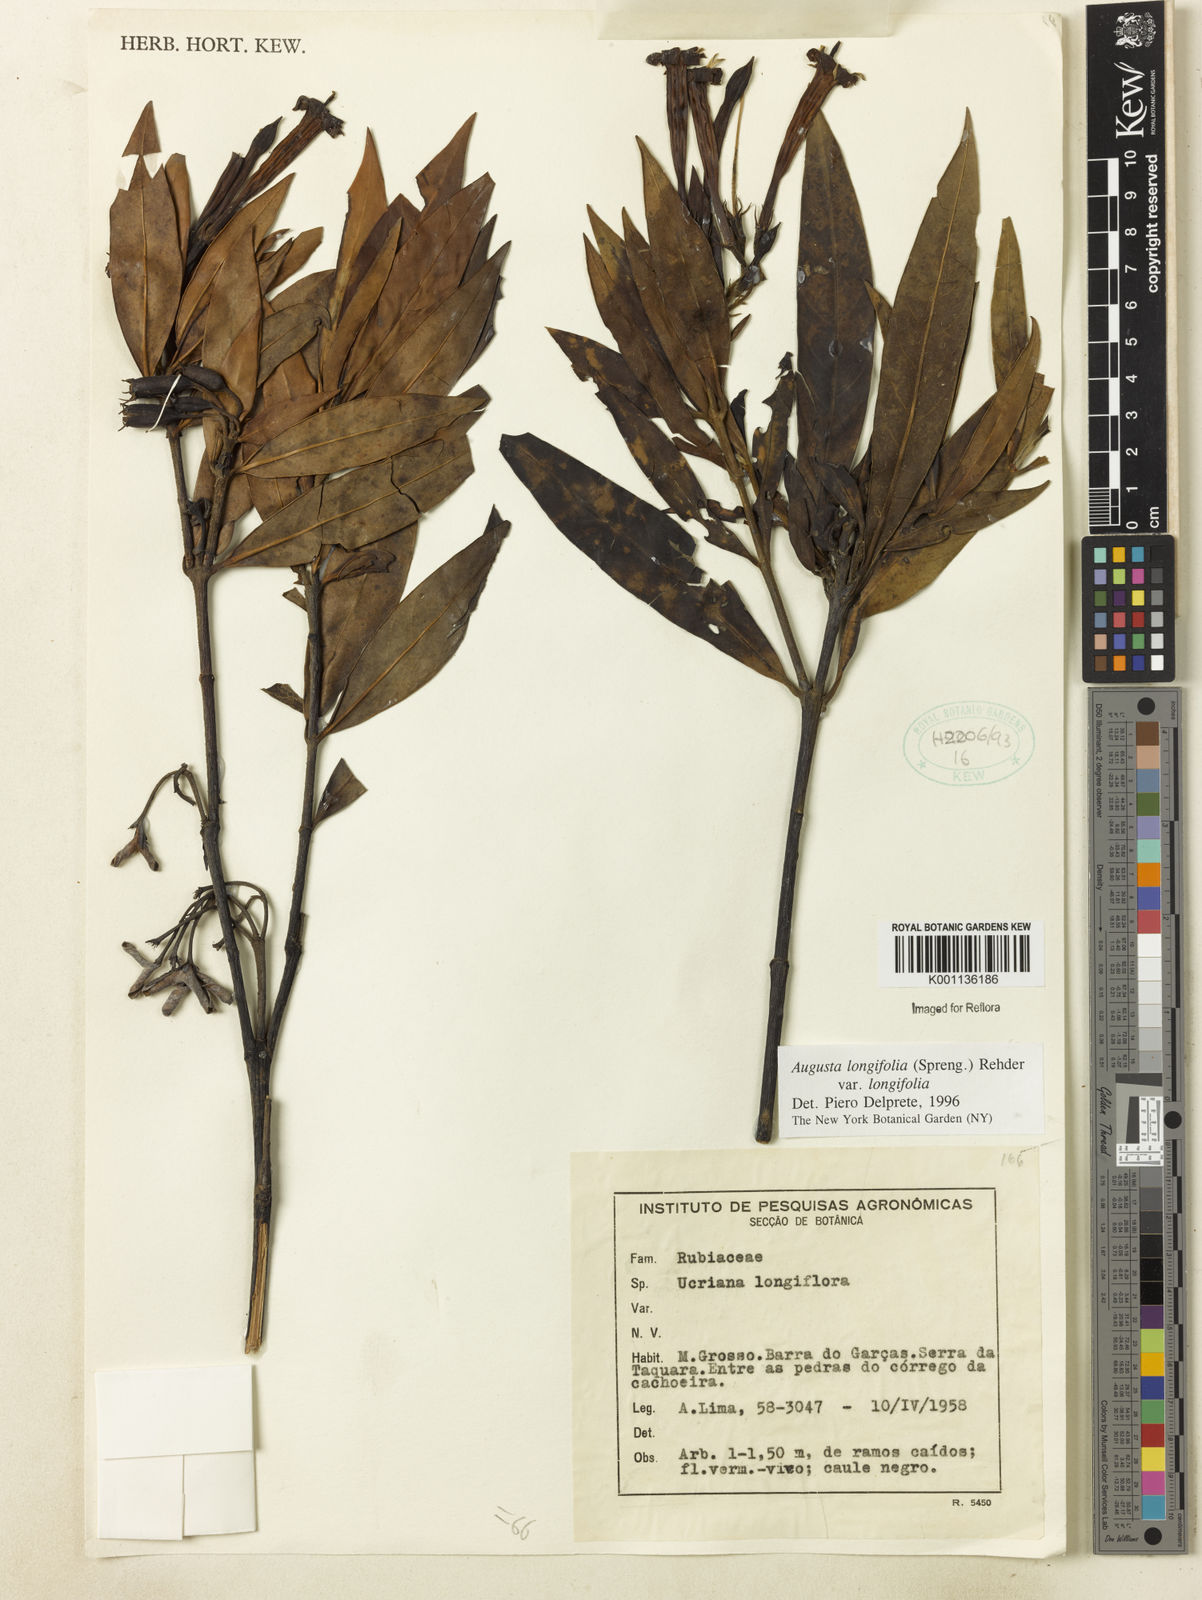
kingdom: Plantae
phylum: Tracheophyta
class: Magnoliopsida
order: Gentianales
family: Rubiaceae
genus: Augusta
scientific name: Augusta longifolia
